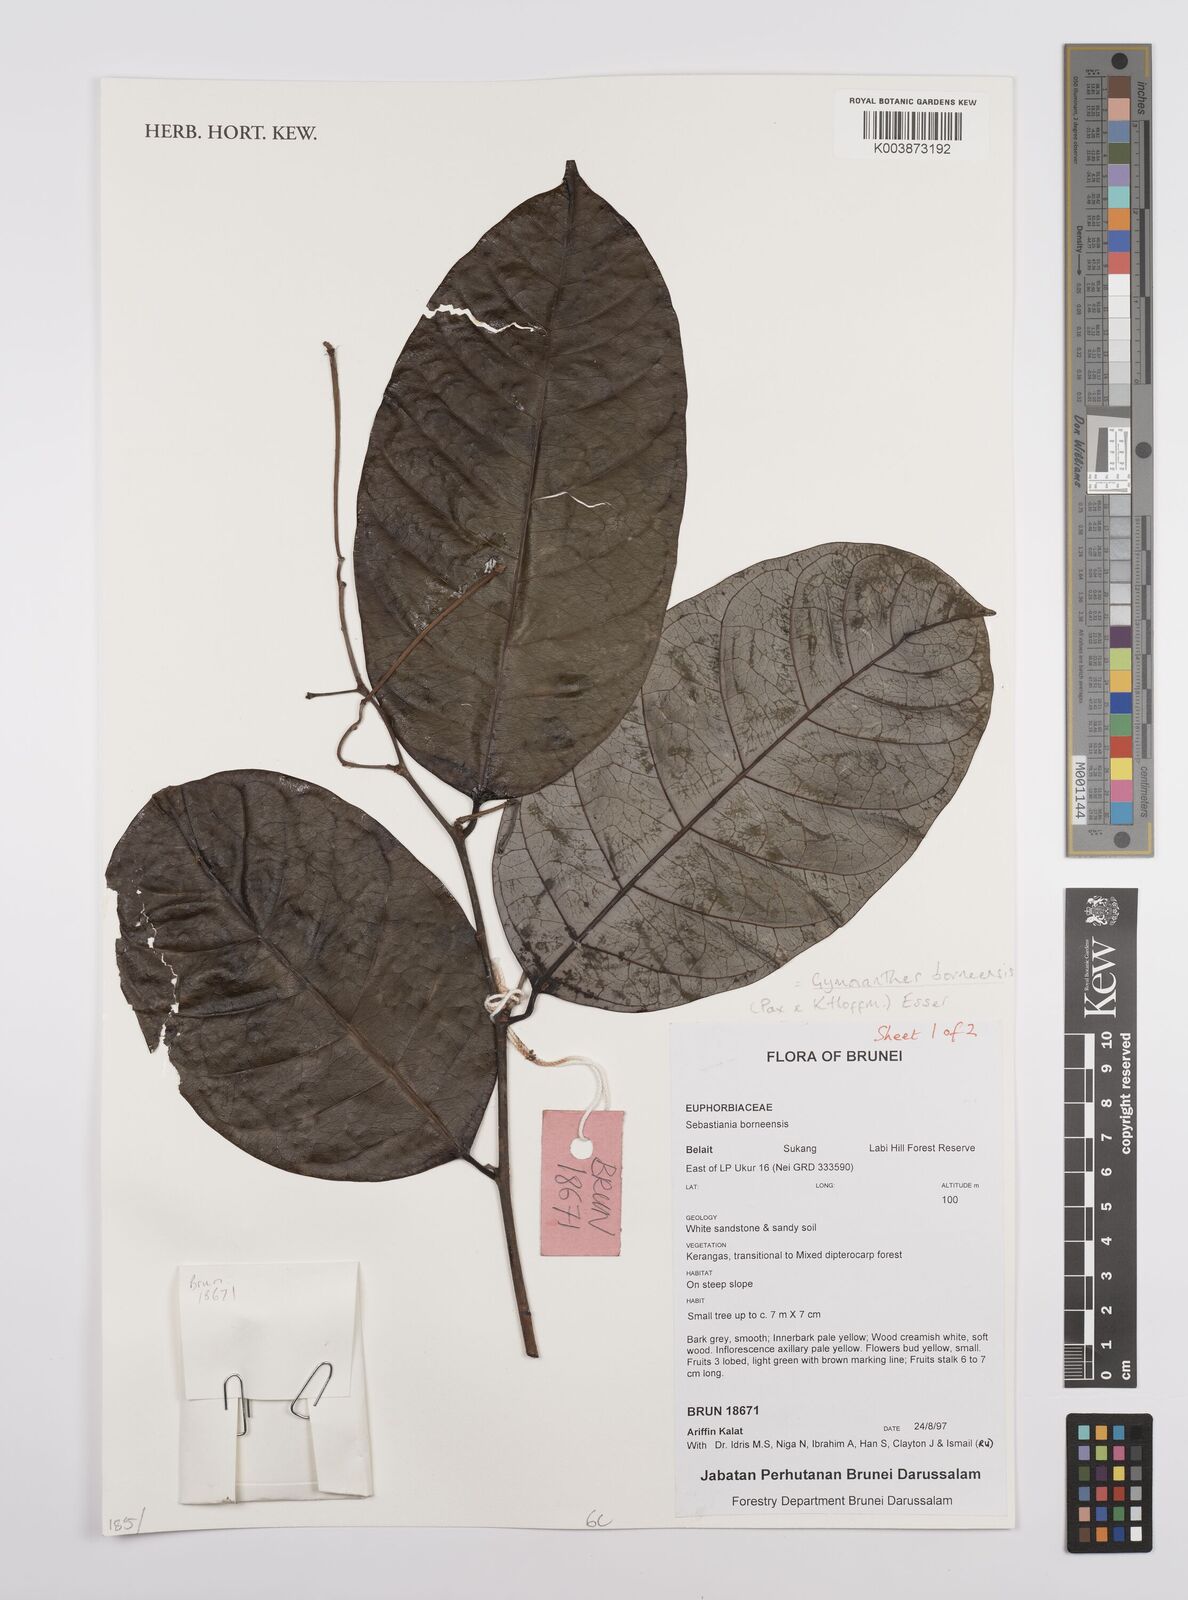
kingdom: Plantae
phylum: Tracheophyta
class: Magnoliopsida
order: Malpighiales
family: Euphorbiaceae
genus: Gymnanthes
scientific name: Gymnanthes borneensis
